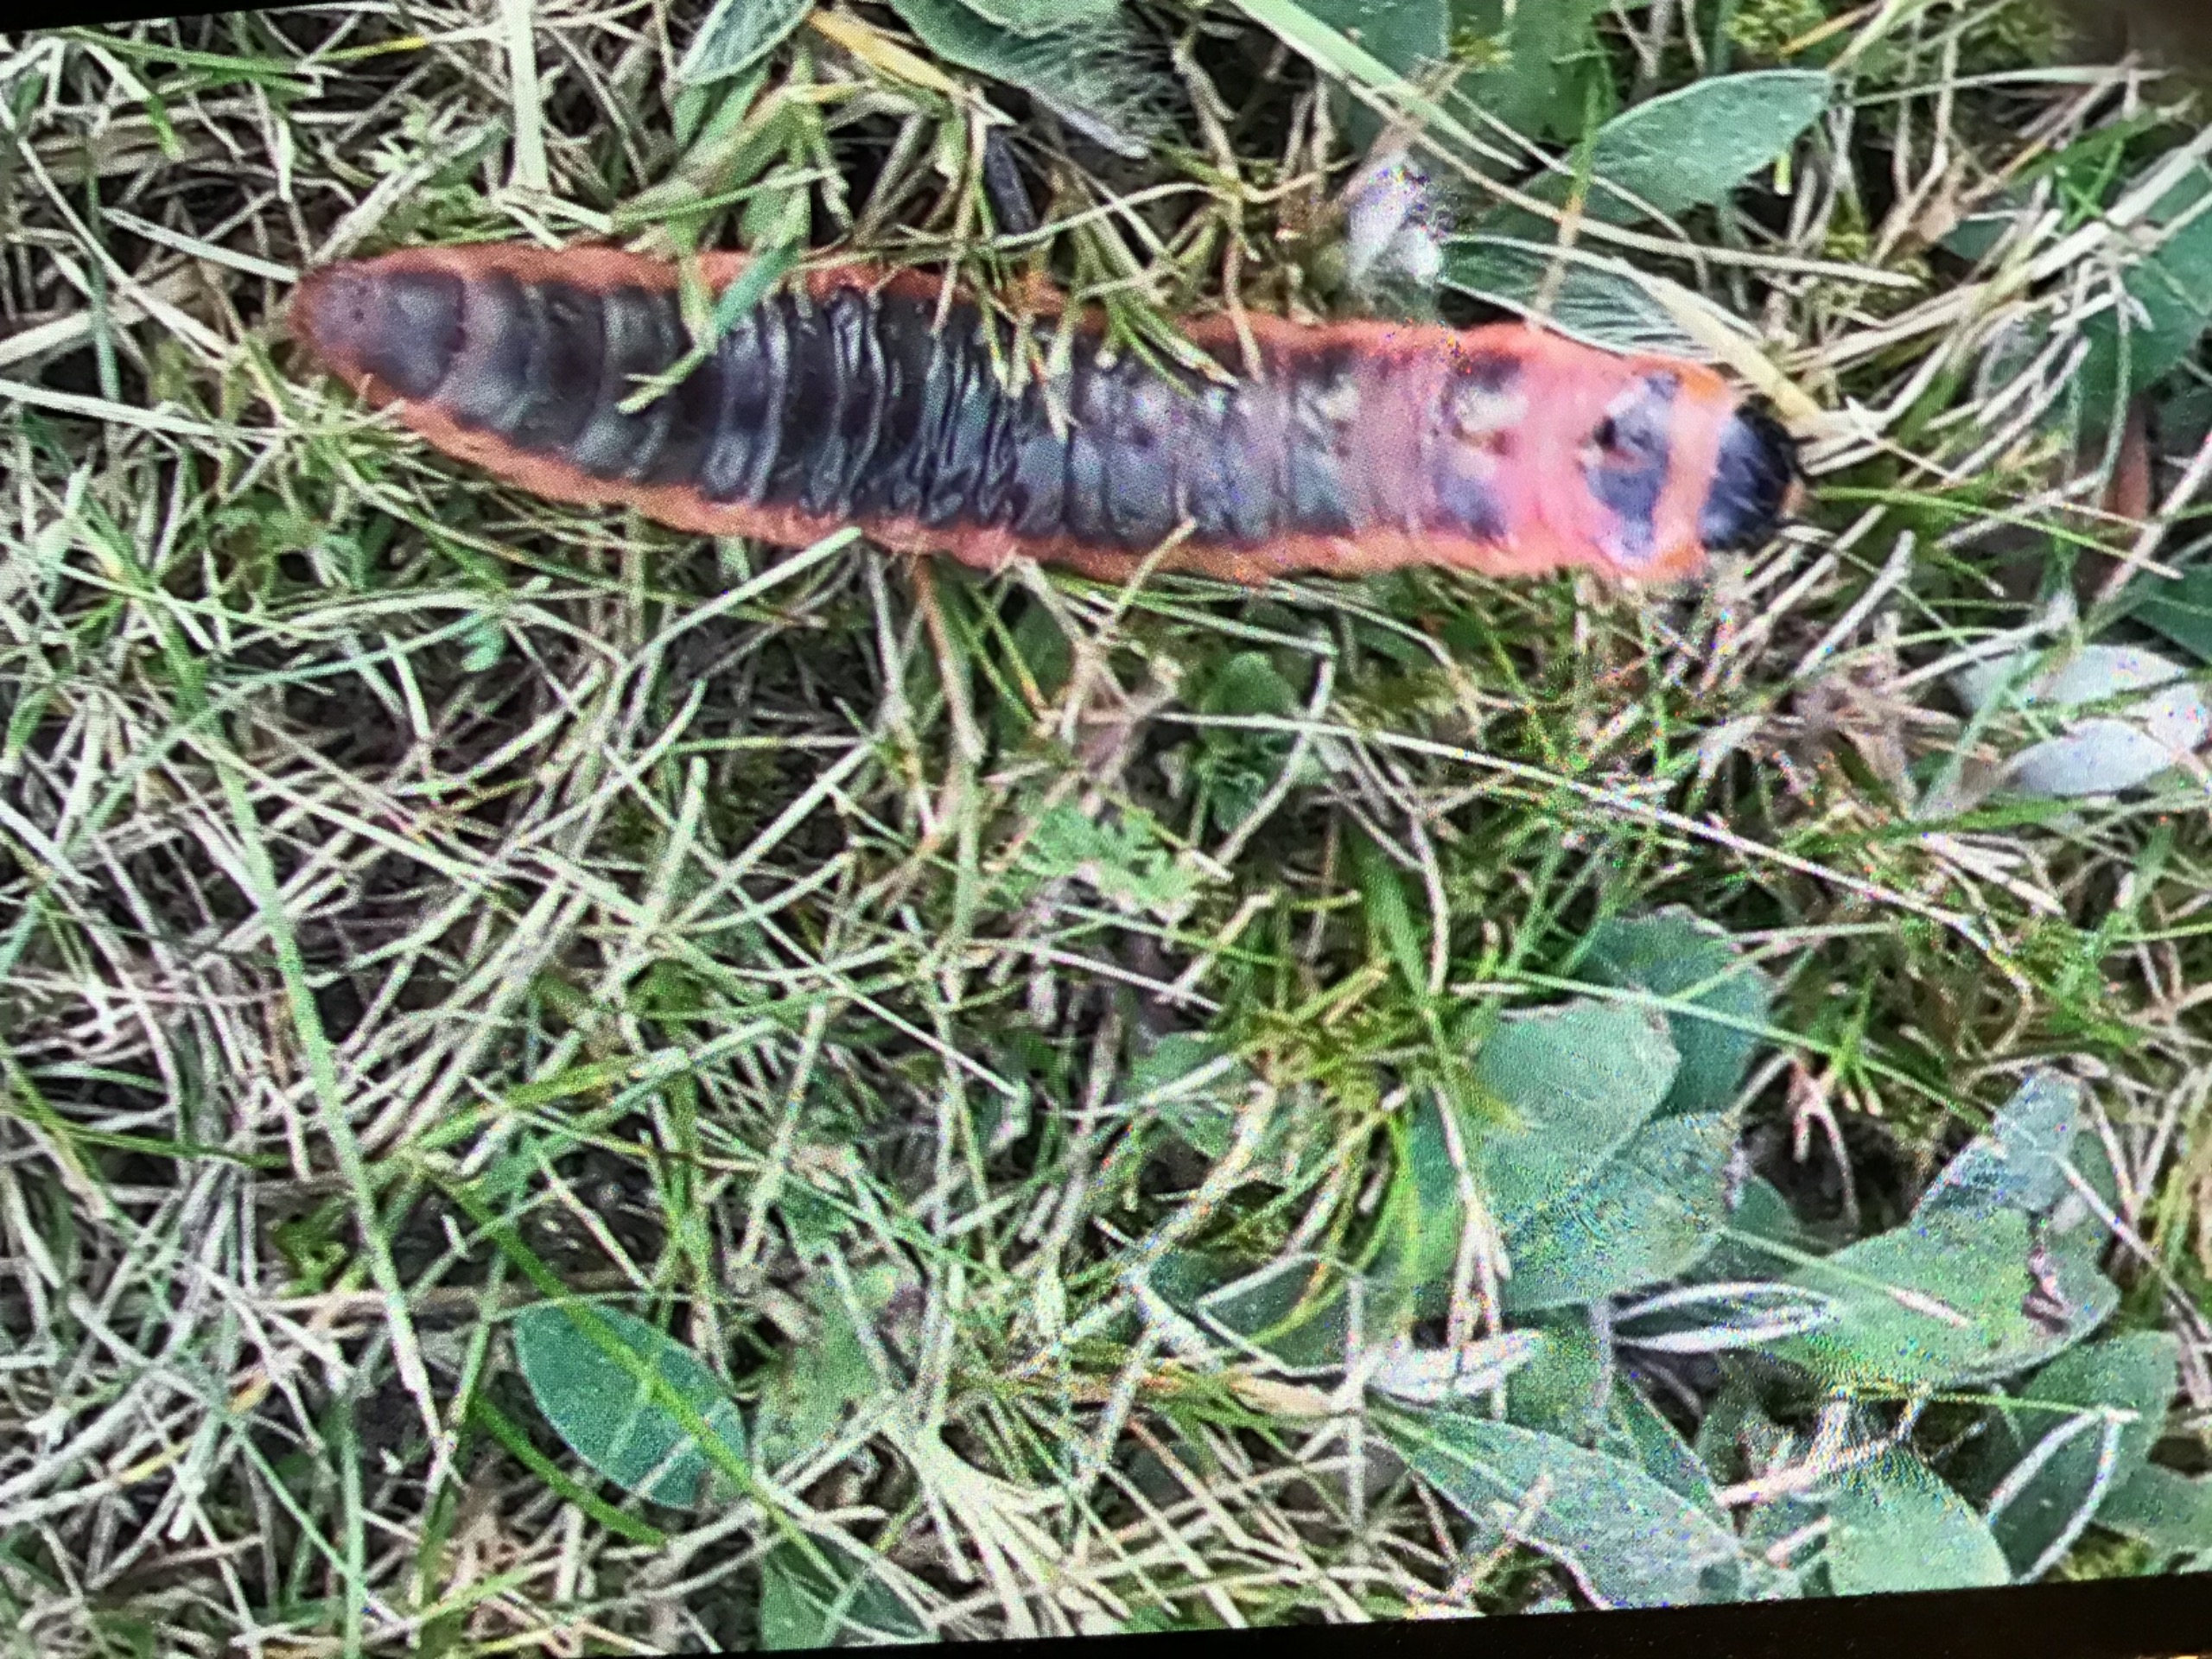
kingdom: Animalia
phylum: Arthropoda
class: Insecta
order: Lepidoptera
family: Cossidae
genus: Cossus
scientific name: Cossus cossus
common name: Pileborer
